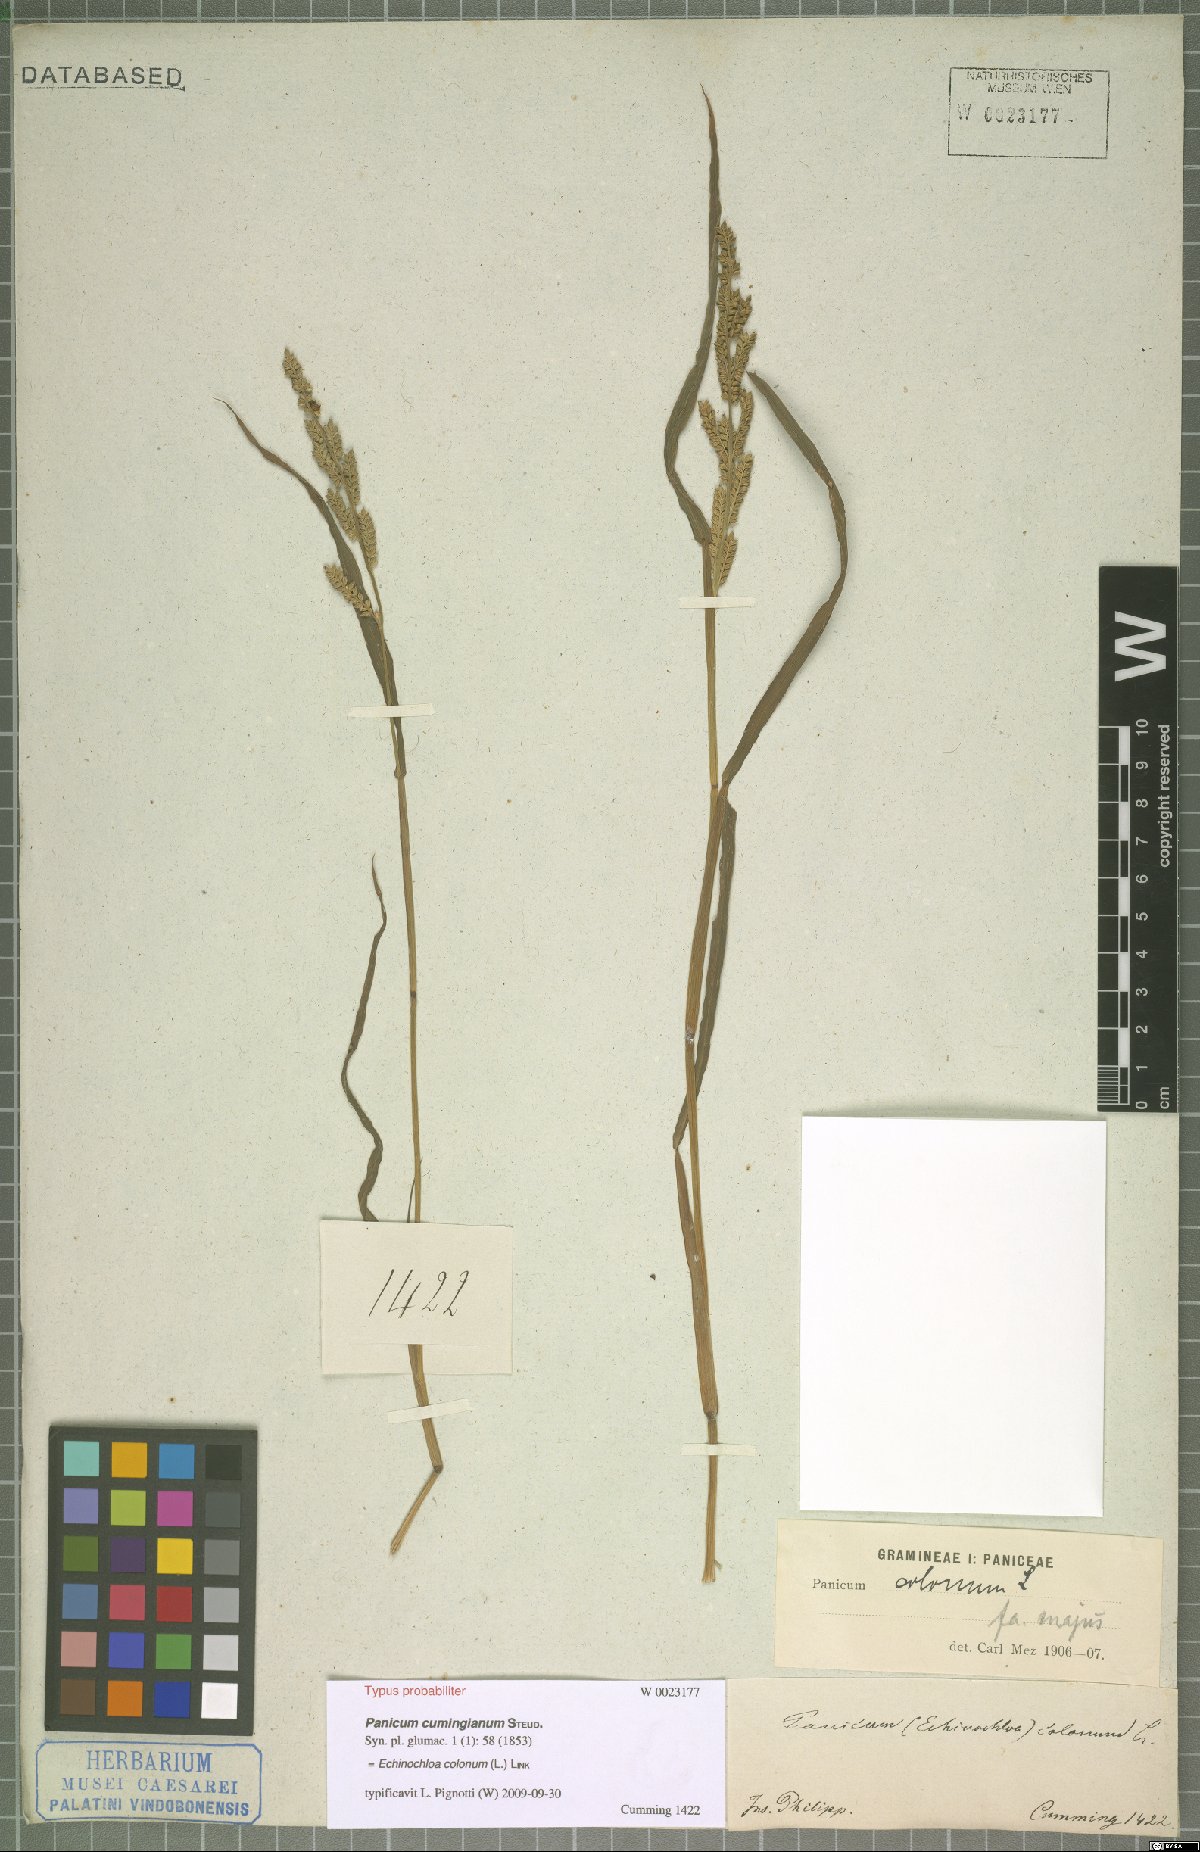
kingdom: Plantae
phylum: Tracheophyta
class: Liliopsida
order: Poales
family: Poaceae
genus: Echinochloa
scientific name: Echinochloa colonum
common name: Jungle rice
